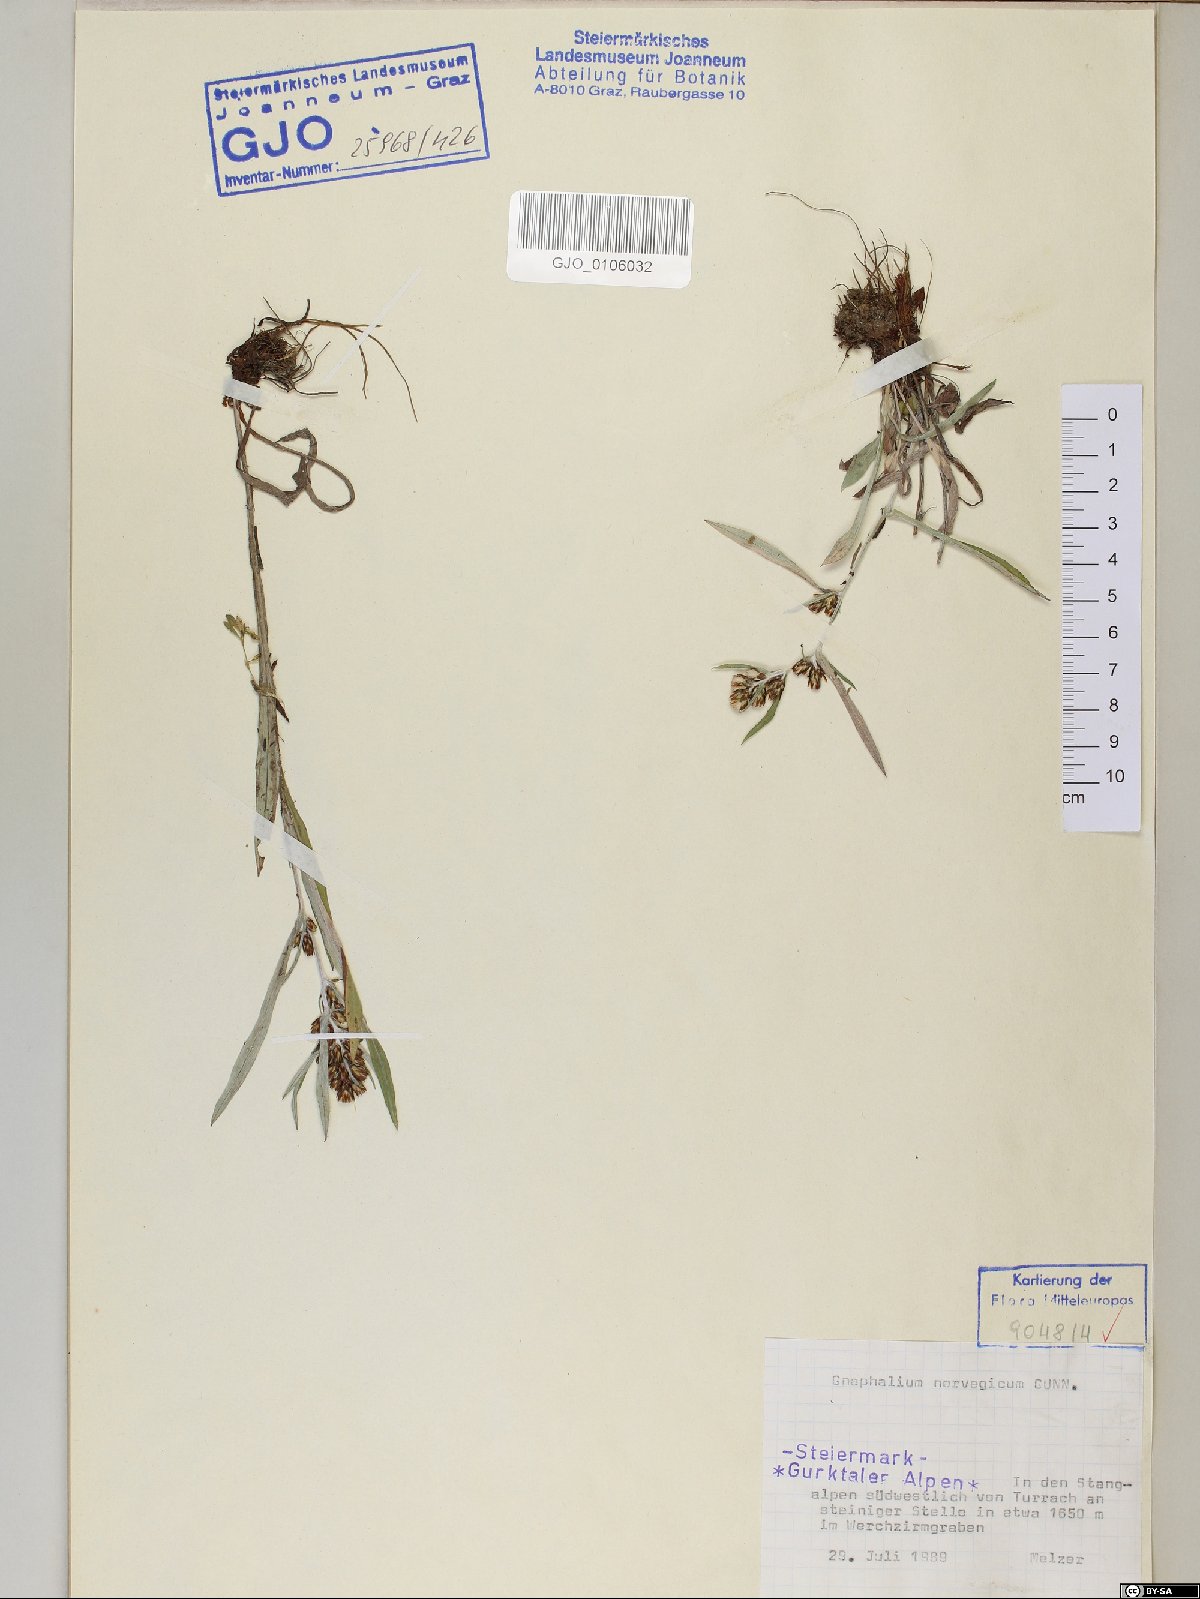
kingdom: Plantae
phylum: Tracheophyta
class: Magnoliopsida
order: Asterales
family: Asteraceae
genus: Omalotheca
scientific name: Omalotheca norvegica
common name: Norwegian arctic-cudweed
